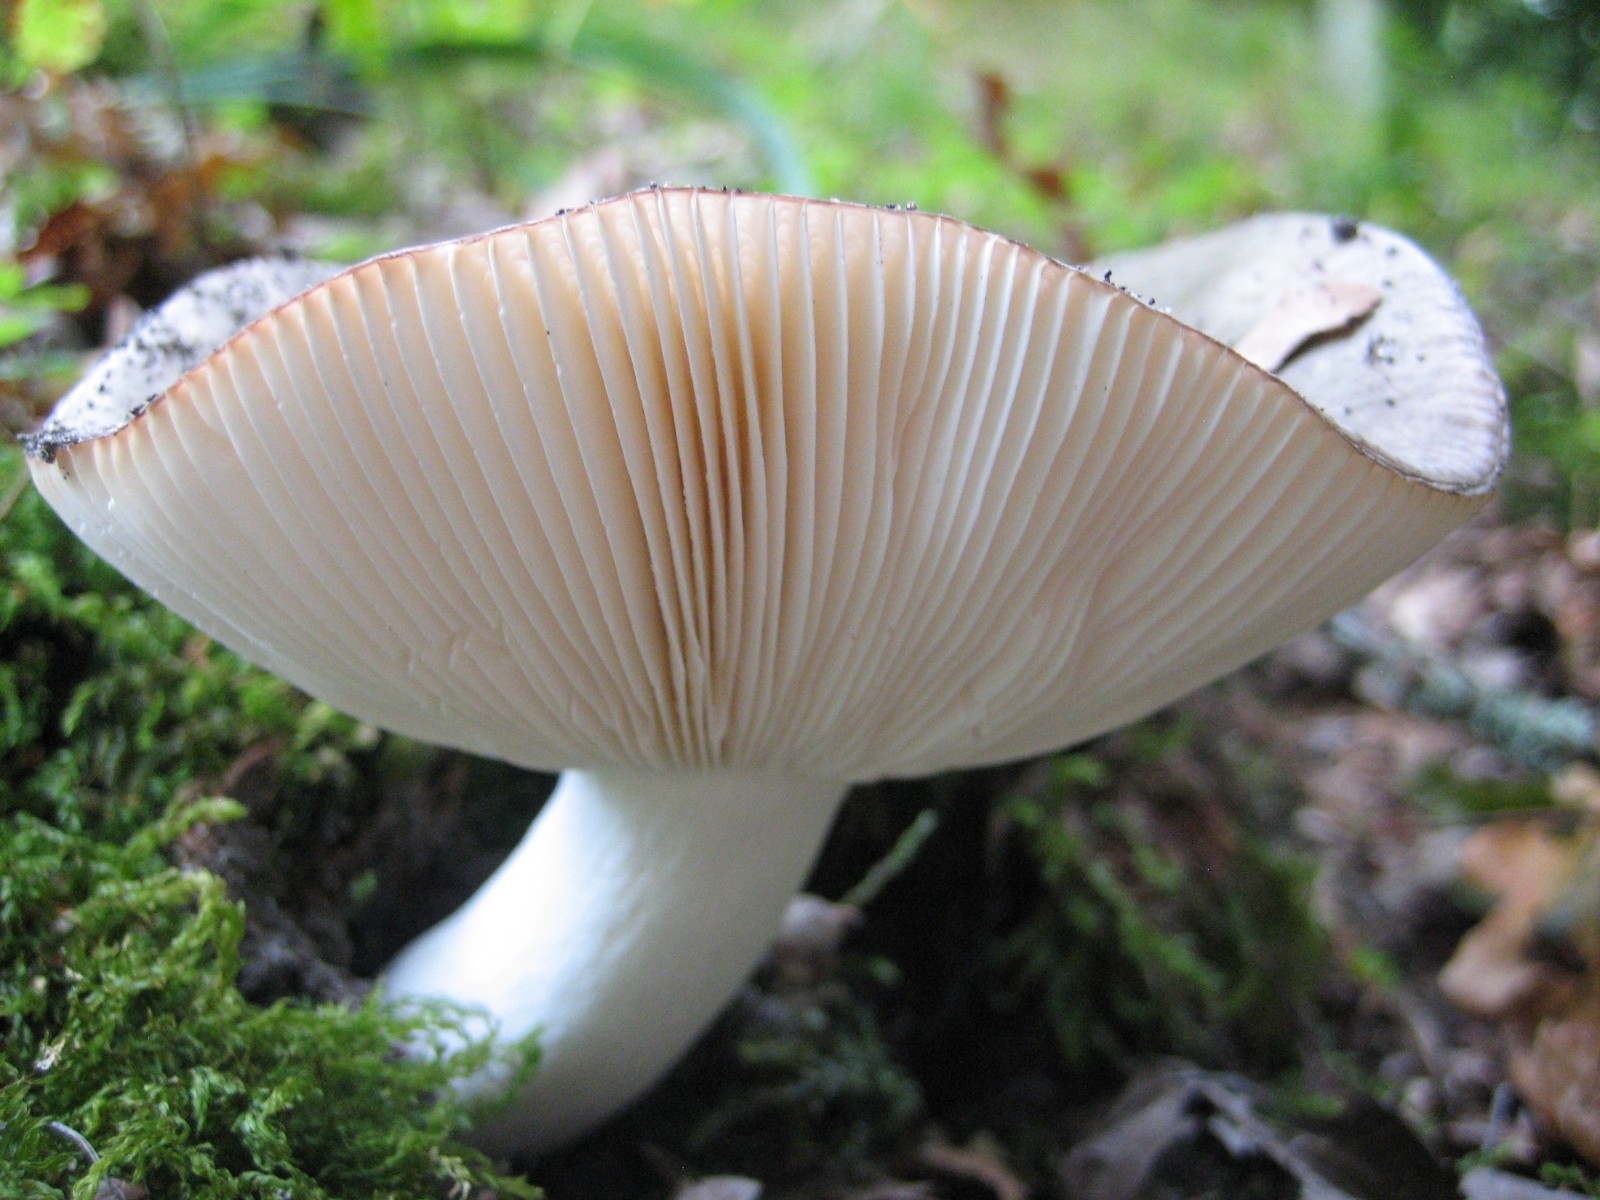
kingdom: Fungi
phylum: Basidiomycota
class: Agaricomycetes
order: Russulales
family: Russulaceae
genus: Russula
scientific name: Russula
